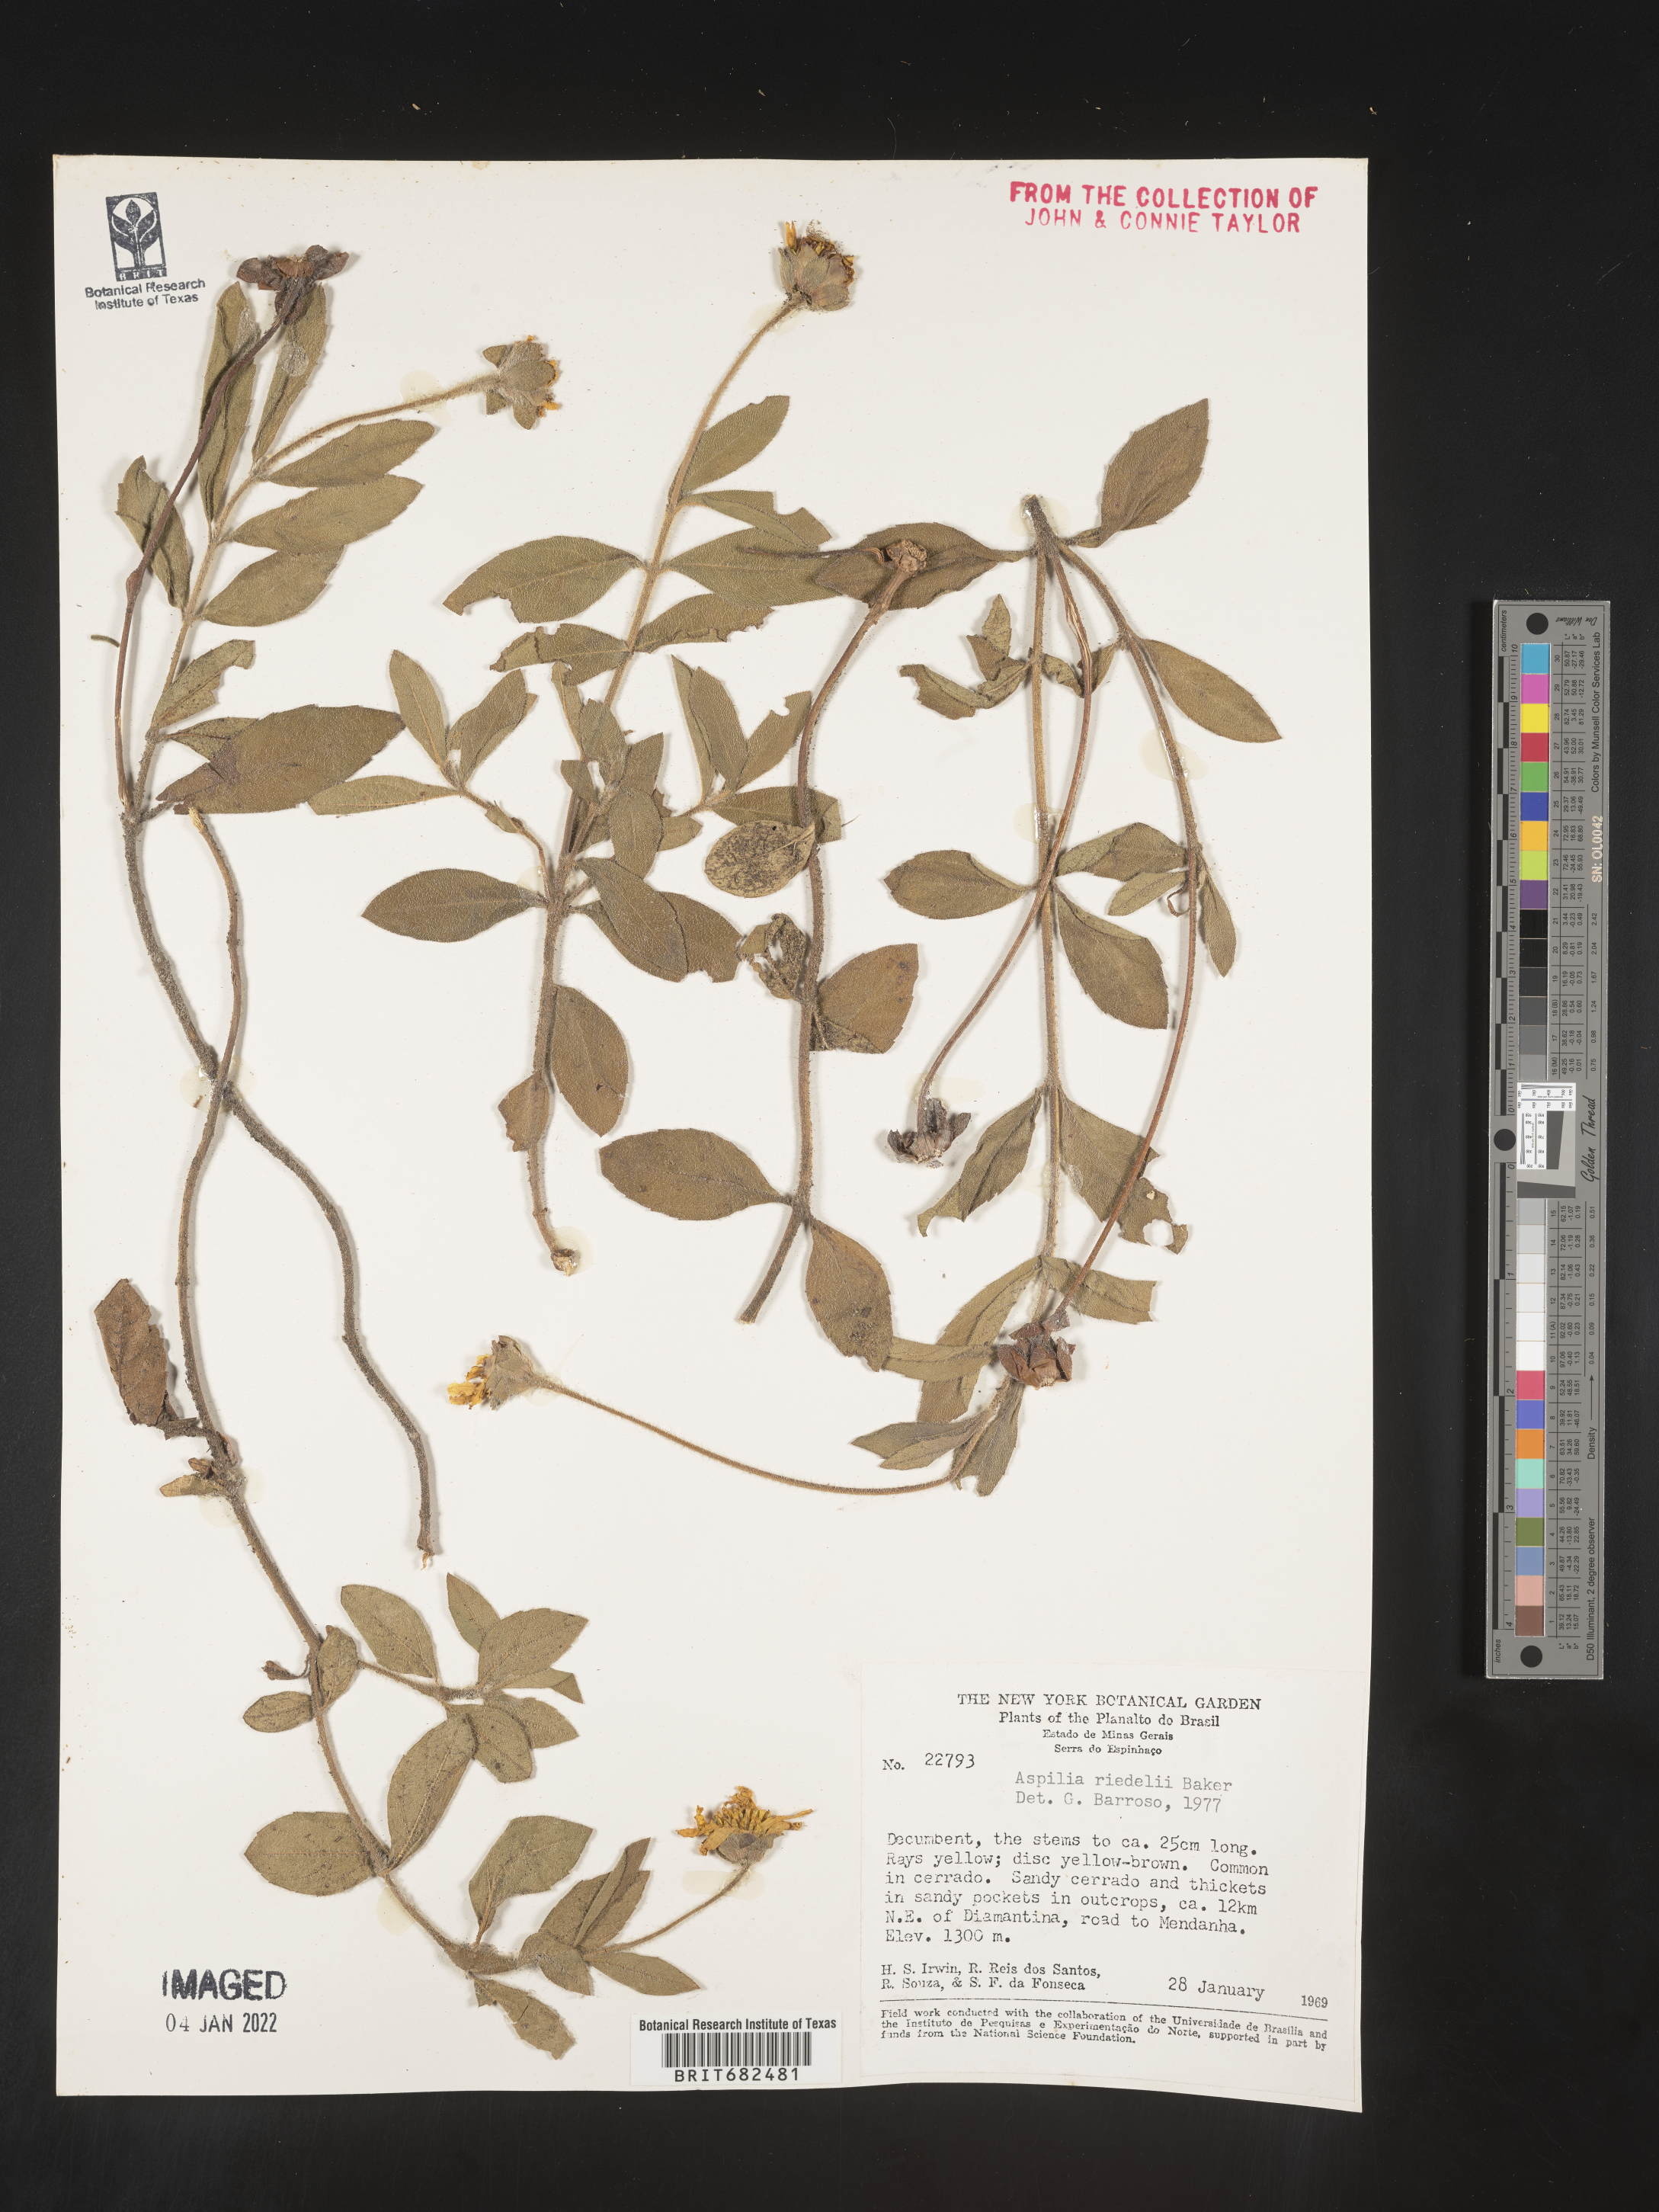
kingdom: Plantae
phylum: Tracheophyta
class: Magnoliopsida
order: Asterales
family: Asteraceae
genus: Aspilia
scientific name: Aspilia
